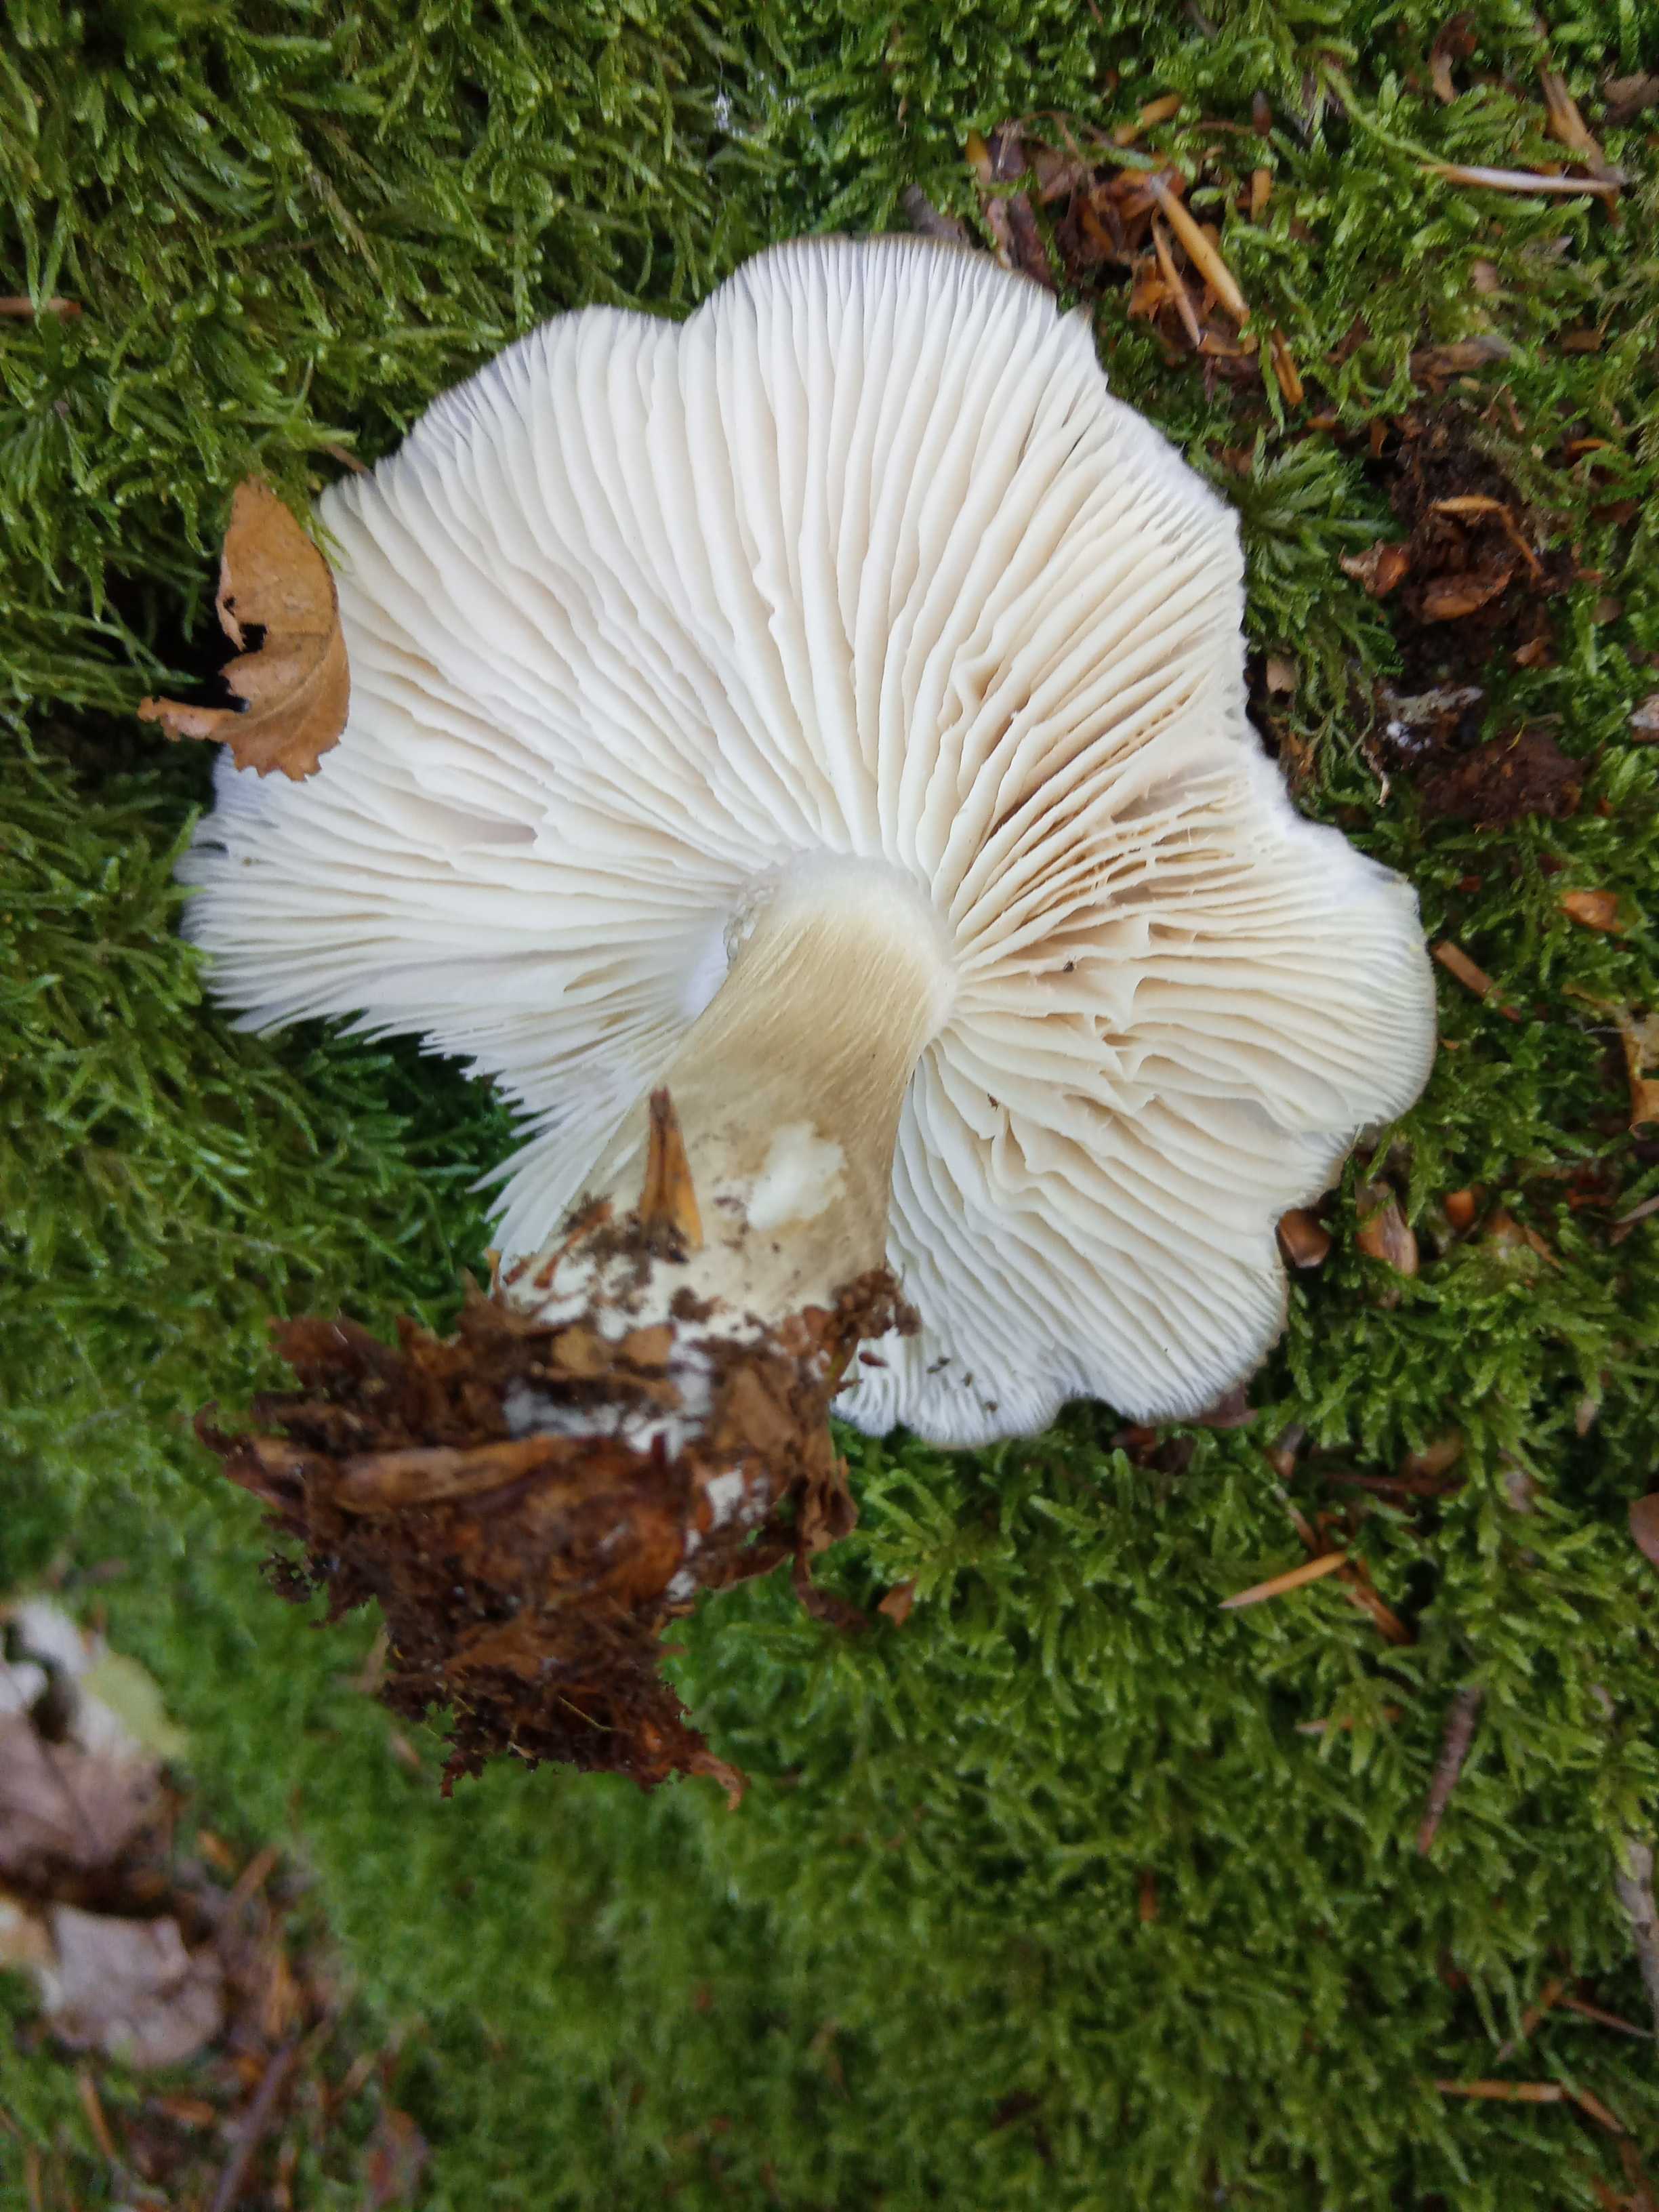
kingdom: Fungi
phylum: Basidiomycota
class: Agaricomycetes
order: Agaricales
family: Tricholomataceae
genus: Megacollybia
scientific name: Megacollybia platyphylla
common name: bredbladet væbnerhat
